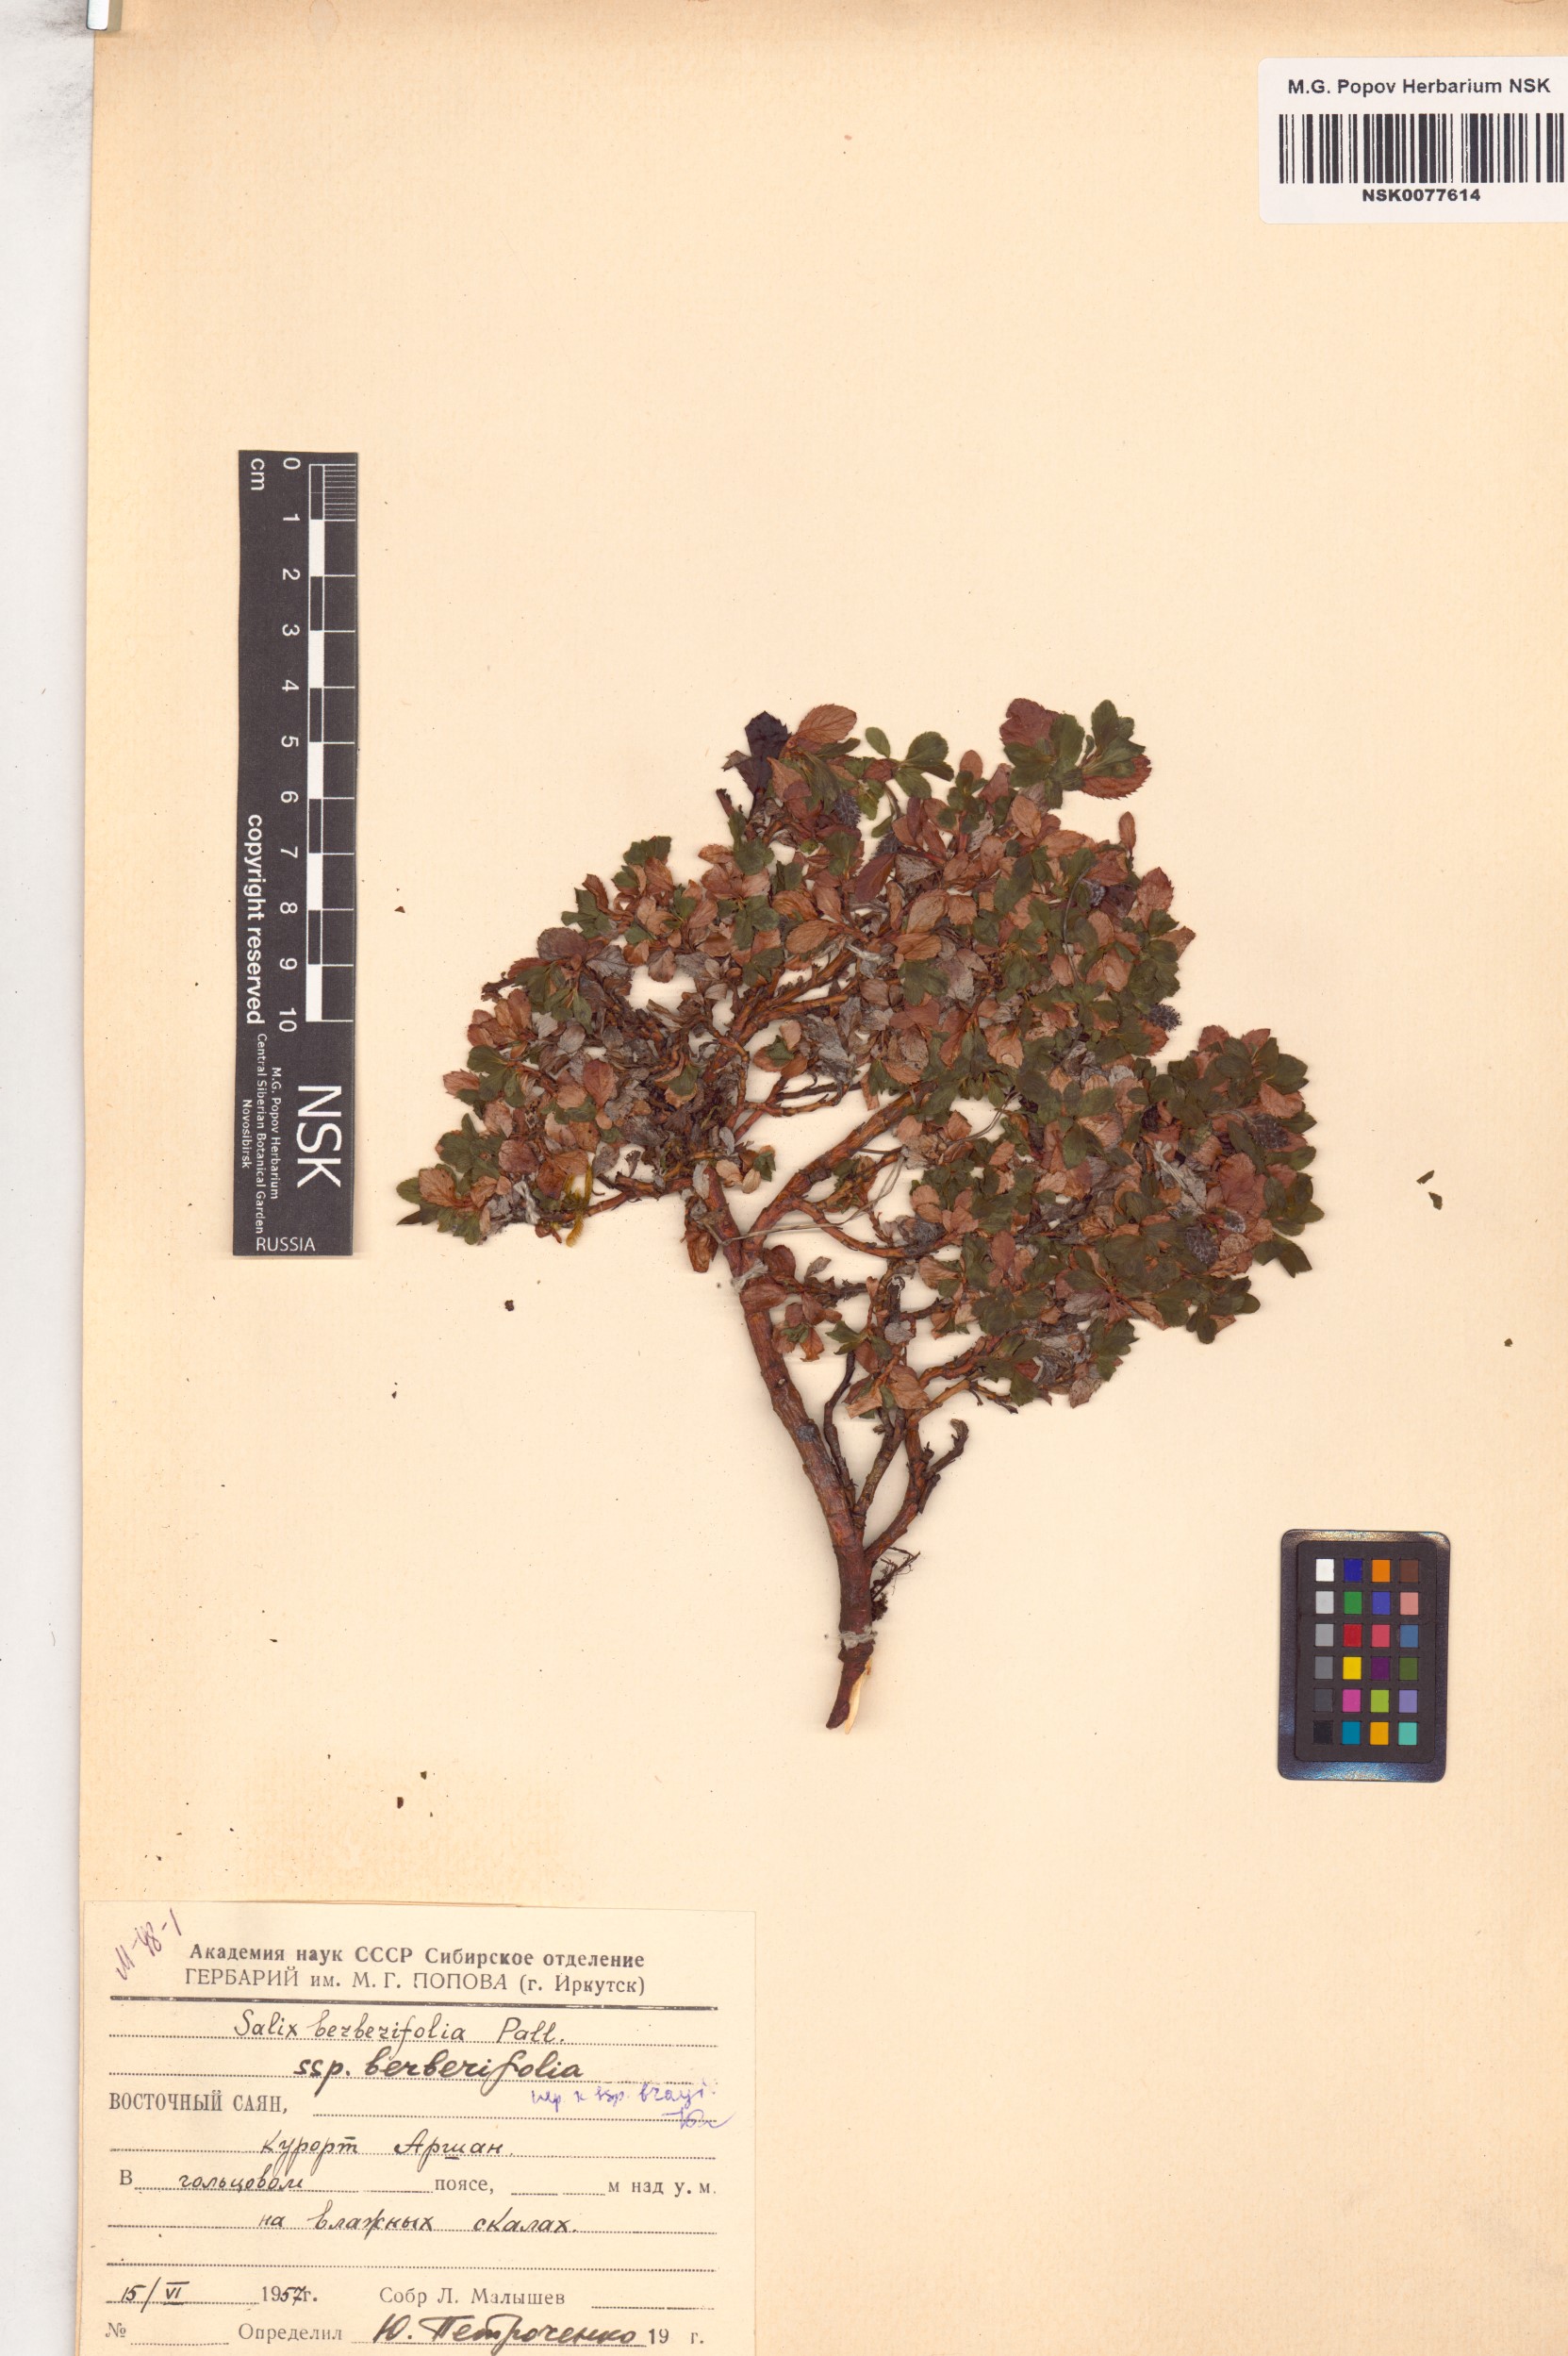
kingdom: Plantae
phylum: Tracheophyta
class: Magnoliopsida
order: Malpighiales
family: Salicaceae
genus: Salix
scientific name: Salix berberifolia
